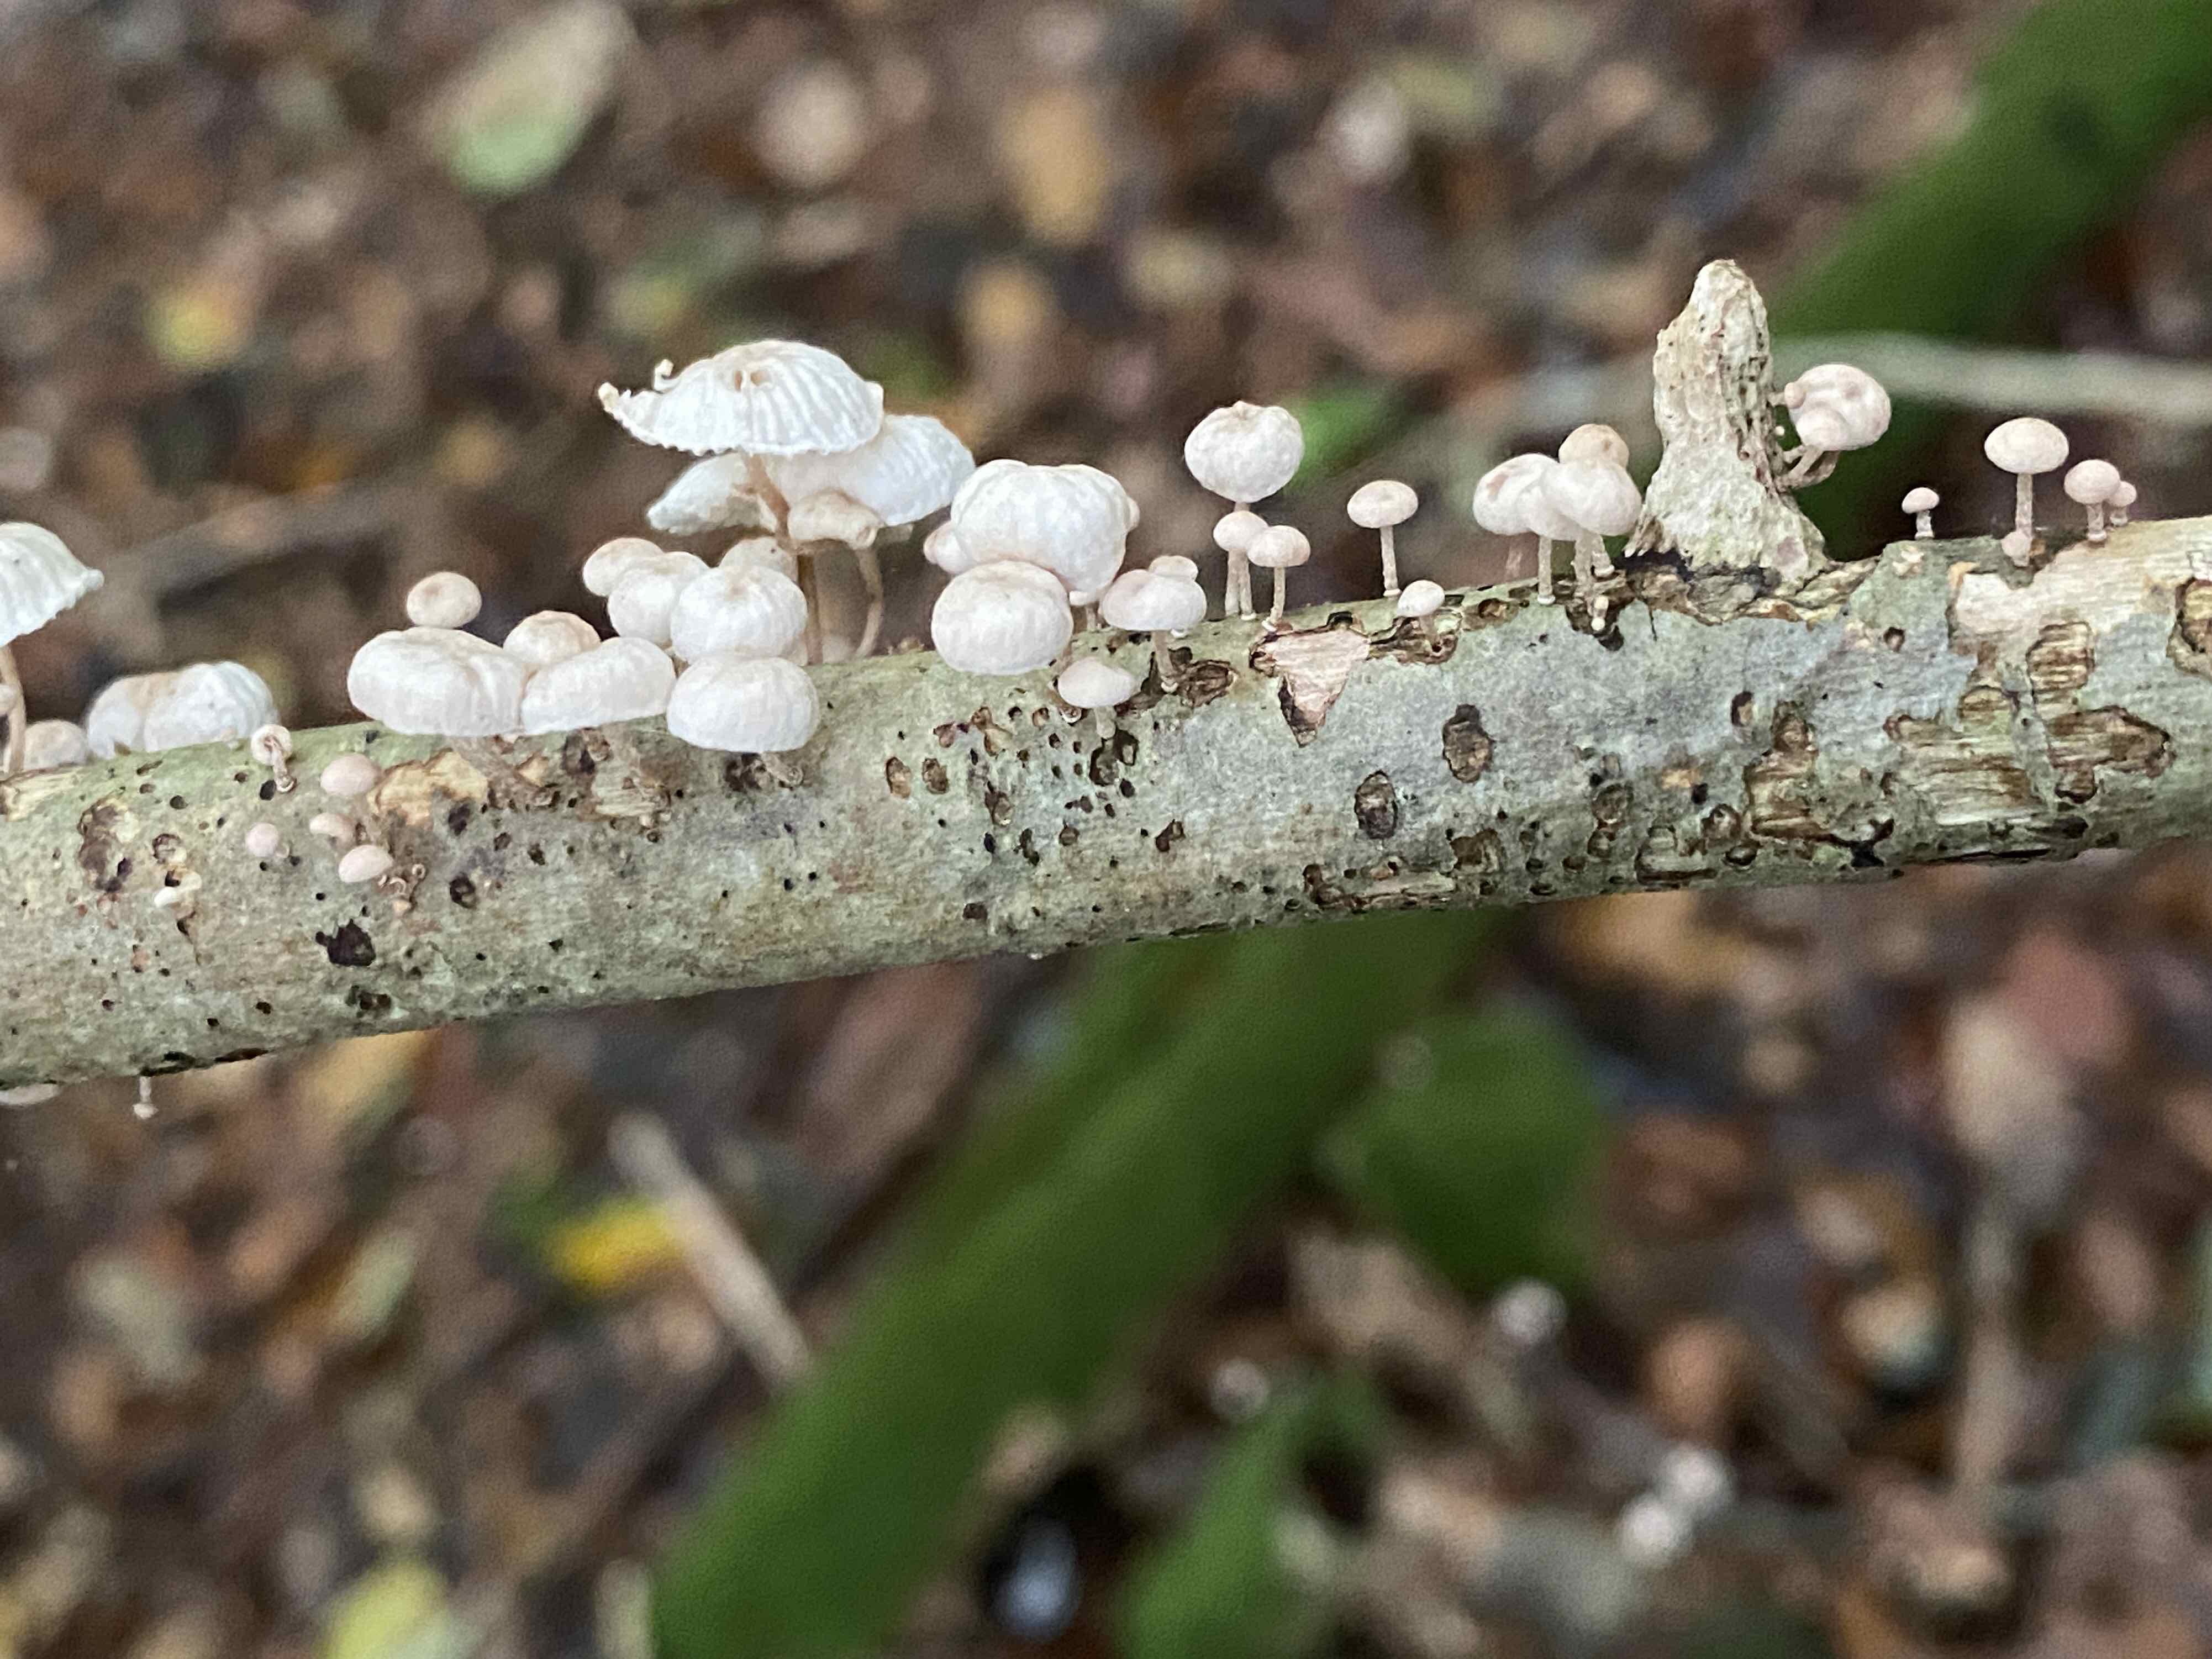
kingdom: Fungi
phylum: Basidiomycota
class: Agaricomycetes
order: Agaricales
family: Omphalotaceae
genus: Collybiopsis
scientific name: Collybiopsis ramealis
